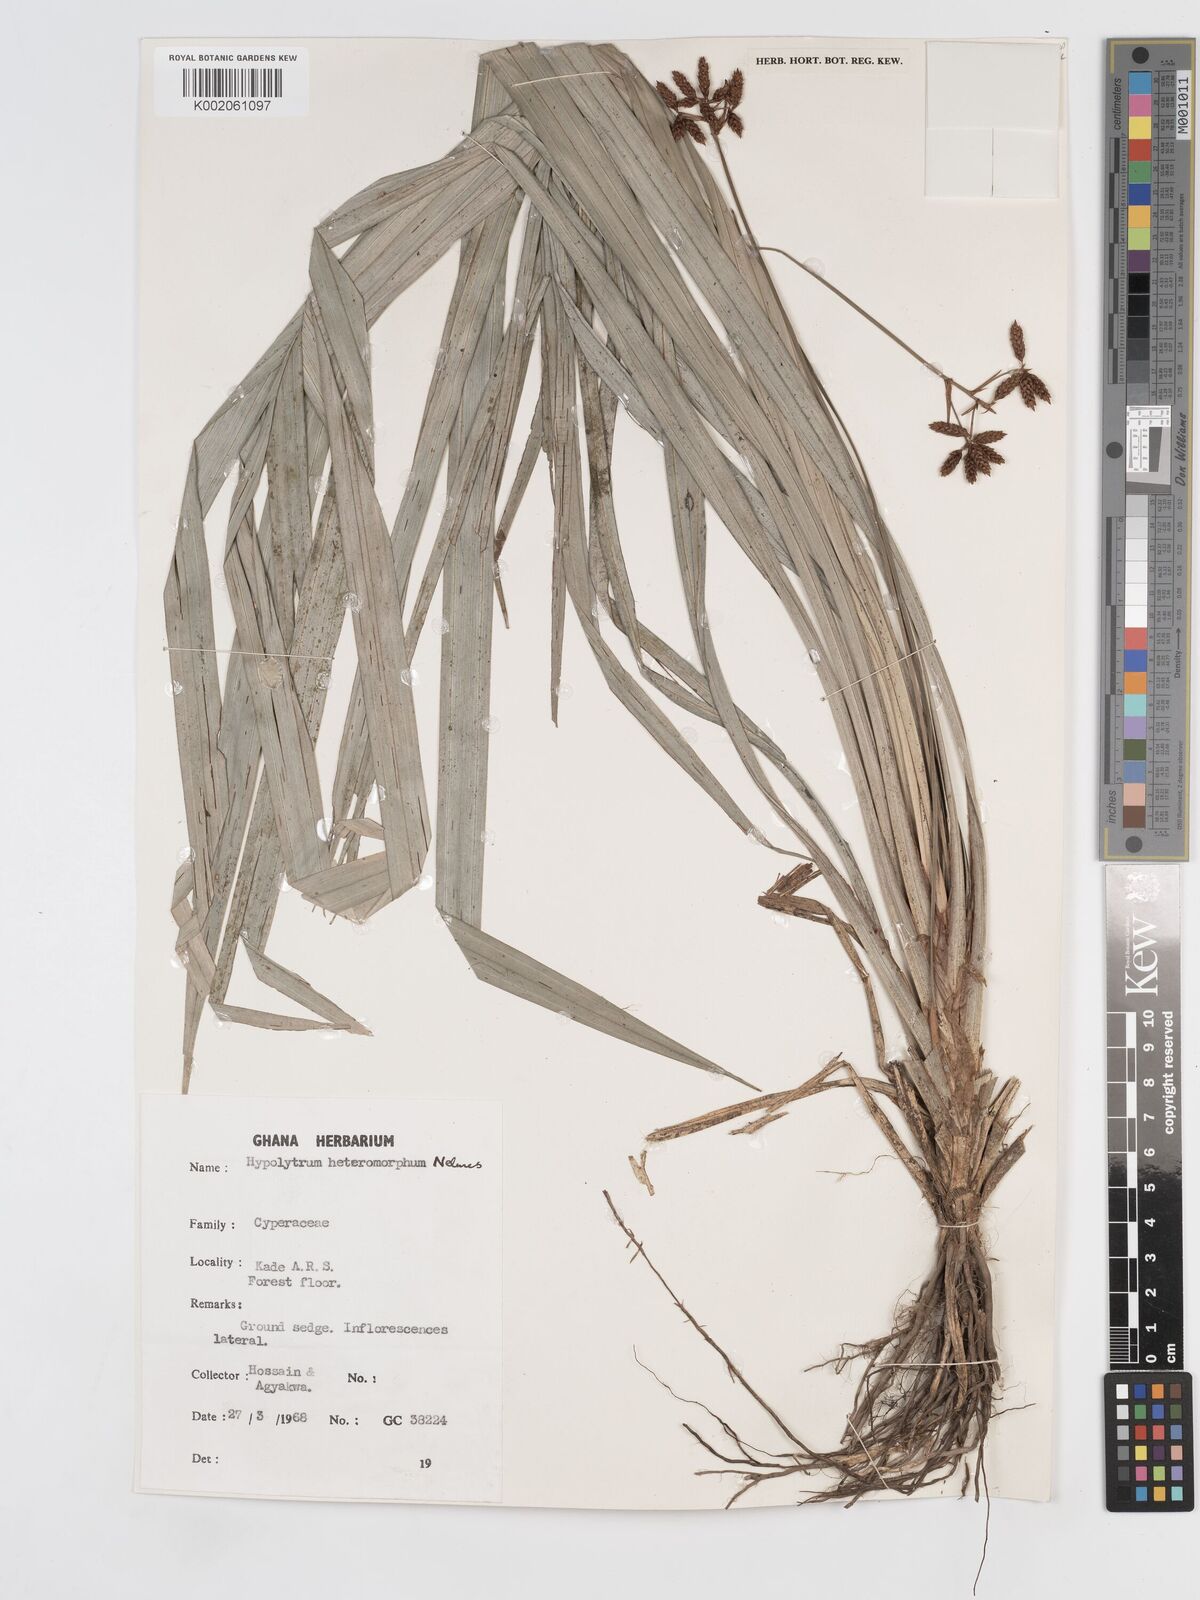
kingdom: Plantae
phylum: Tracheophyta
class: Liliopsida
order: Poales
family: Cyperaceae
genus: Hypolytrum
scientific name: Hypolytrum heteromorphum
